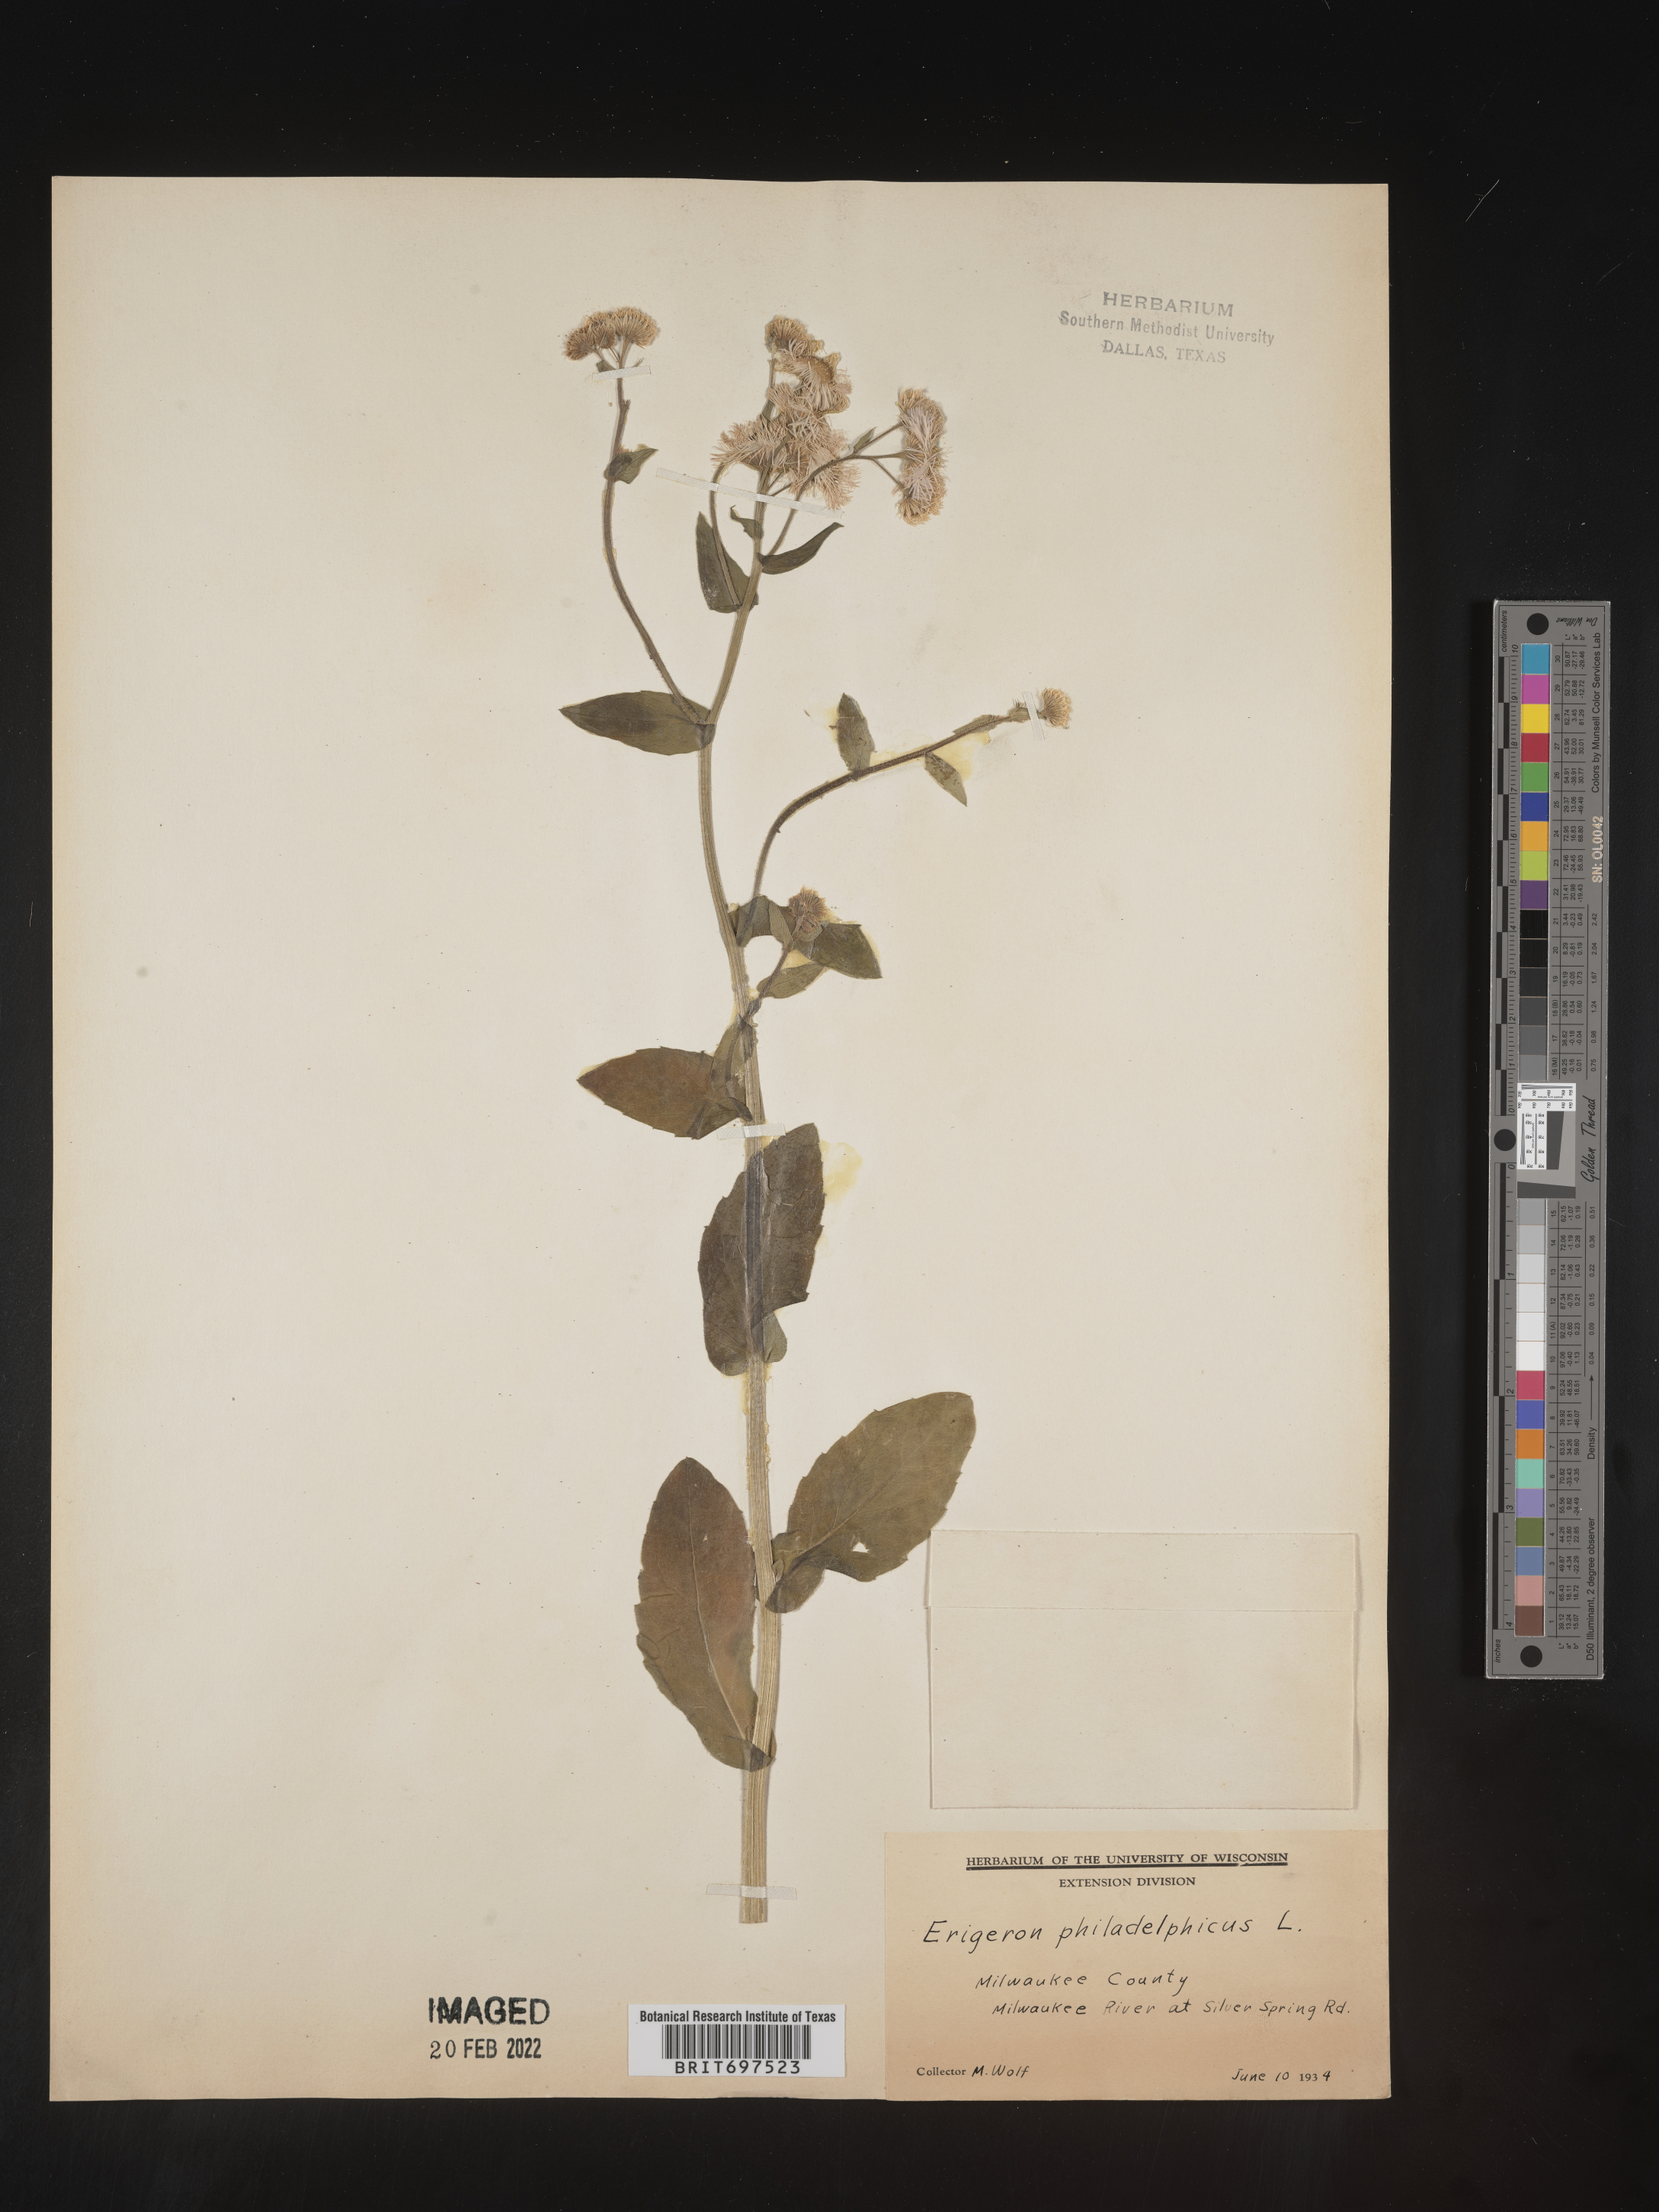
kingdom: Plantae
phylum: Tracheophyta
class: Magnoliopsida
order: Asterales
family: Asteraceae
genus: Erigeron
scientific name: Erigeron philadelphicus
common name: Robin's-plantain
